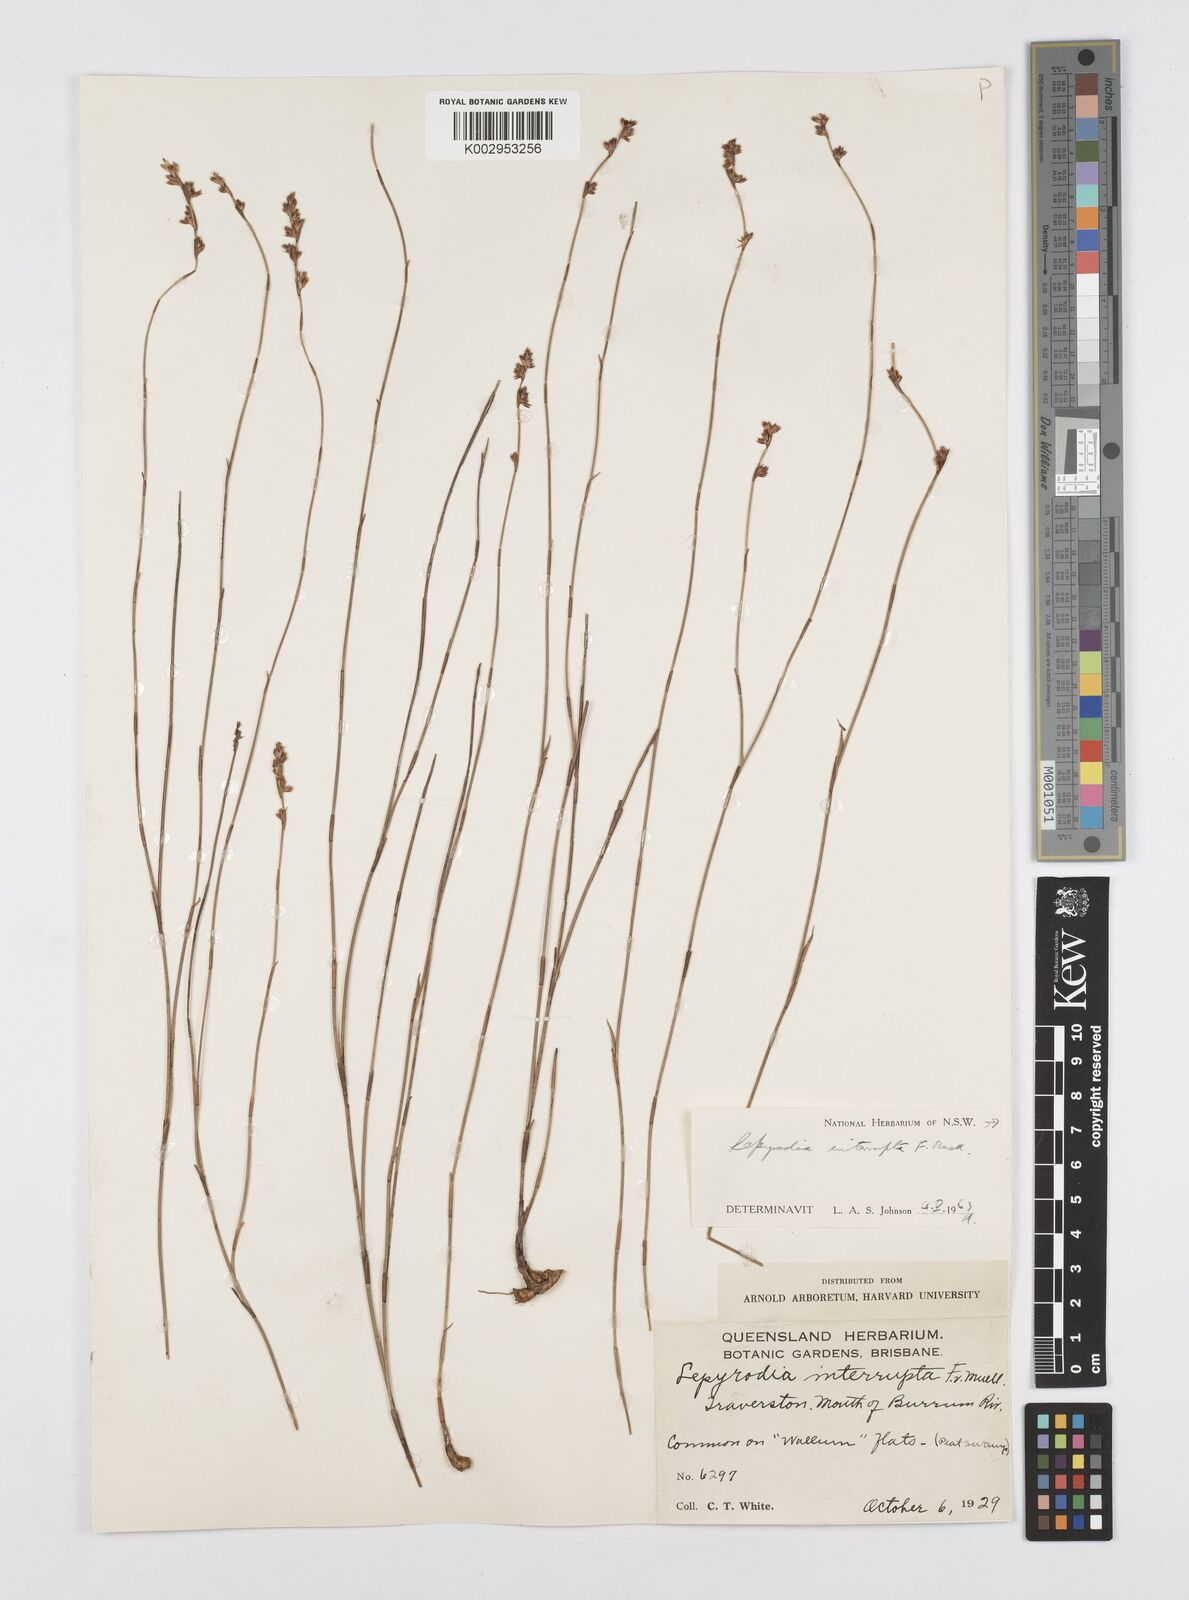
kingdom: Plantae
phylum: Tracheophyta
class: Liliopsida
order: Poales
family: Restionaceae
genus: Sporadanthus
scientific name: Sporadanthus interruptus
